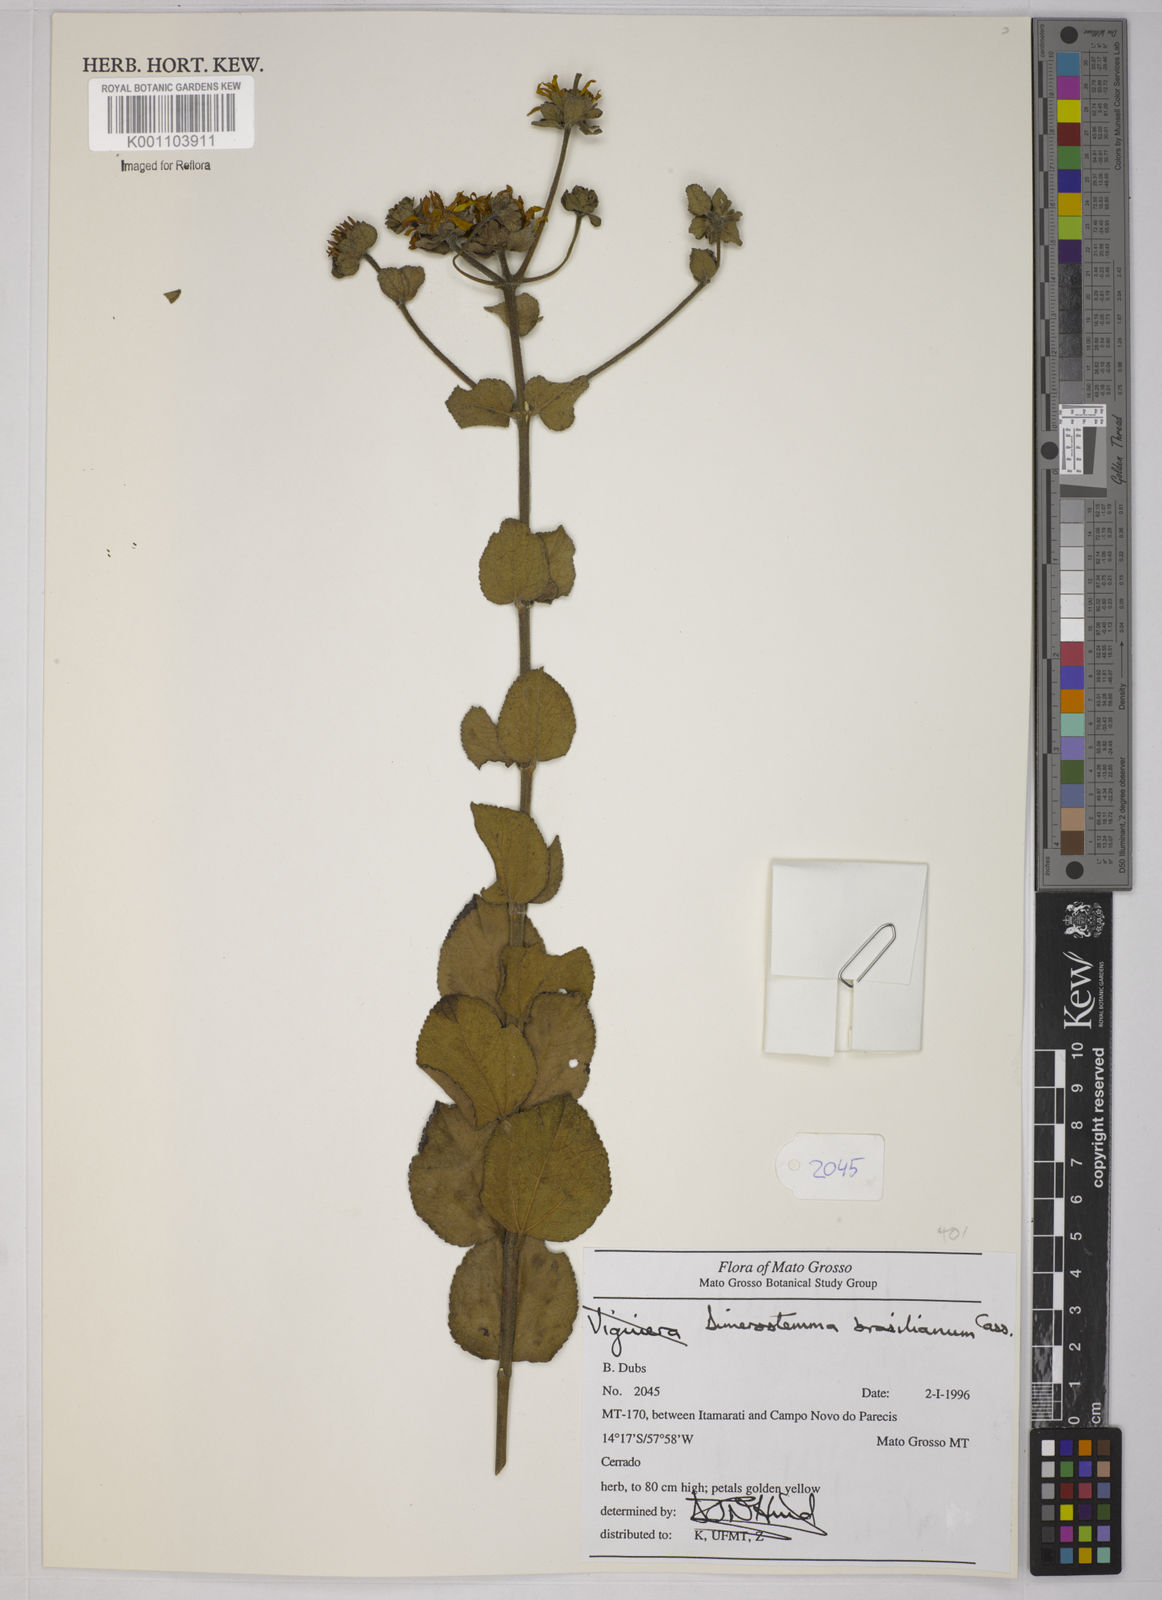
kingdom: Plantae
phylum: Tracheophyta
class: Magnoliopsida
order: Asterales
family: Asteraceae
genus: Dimerostemma
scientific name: Dimerostemma brasilianum
